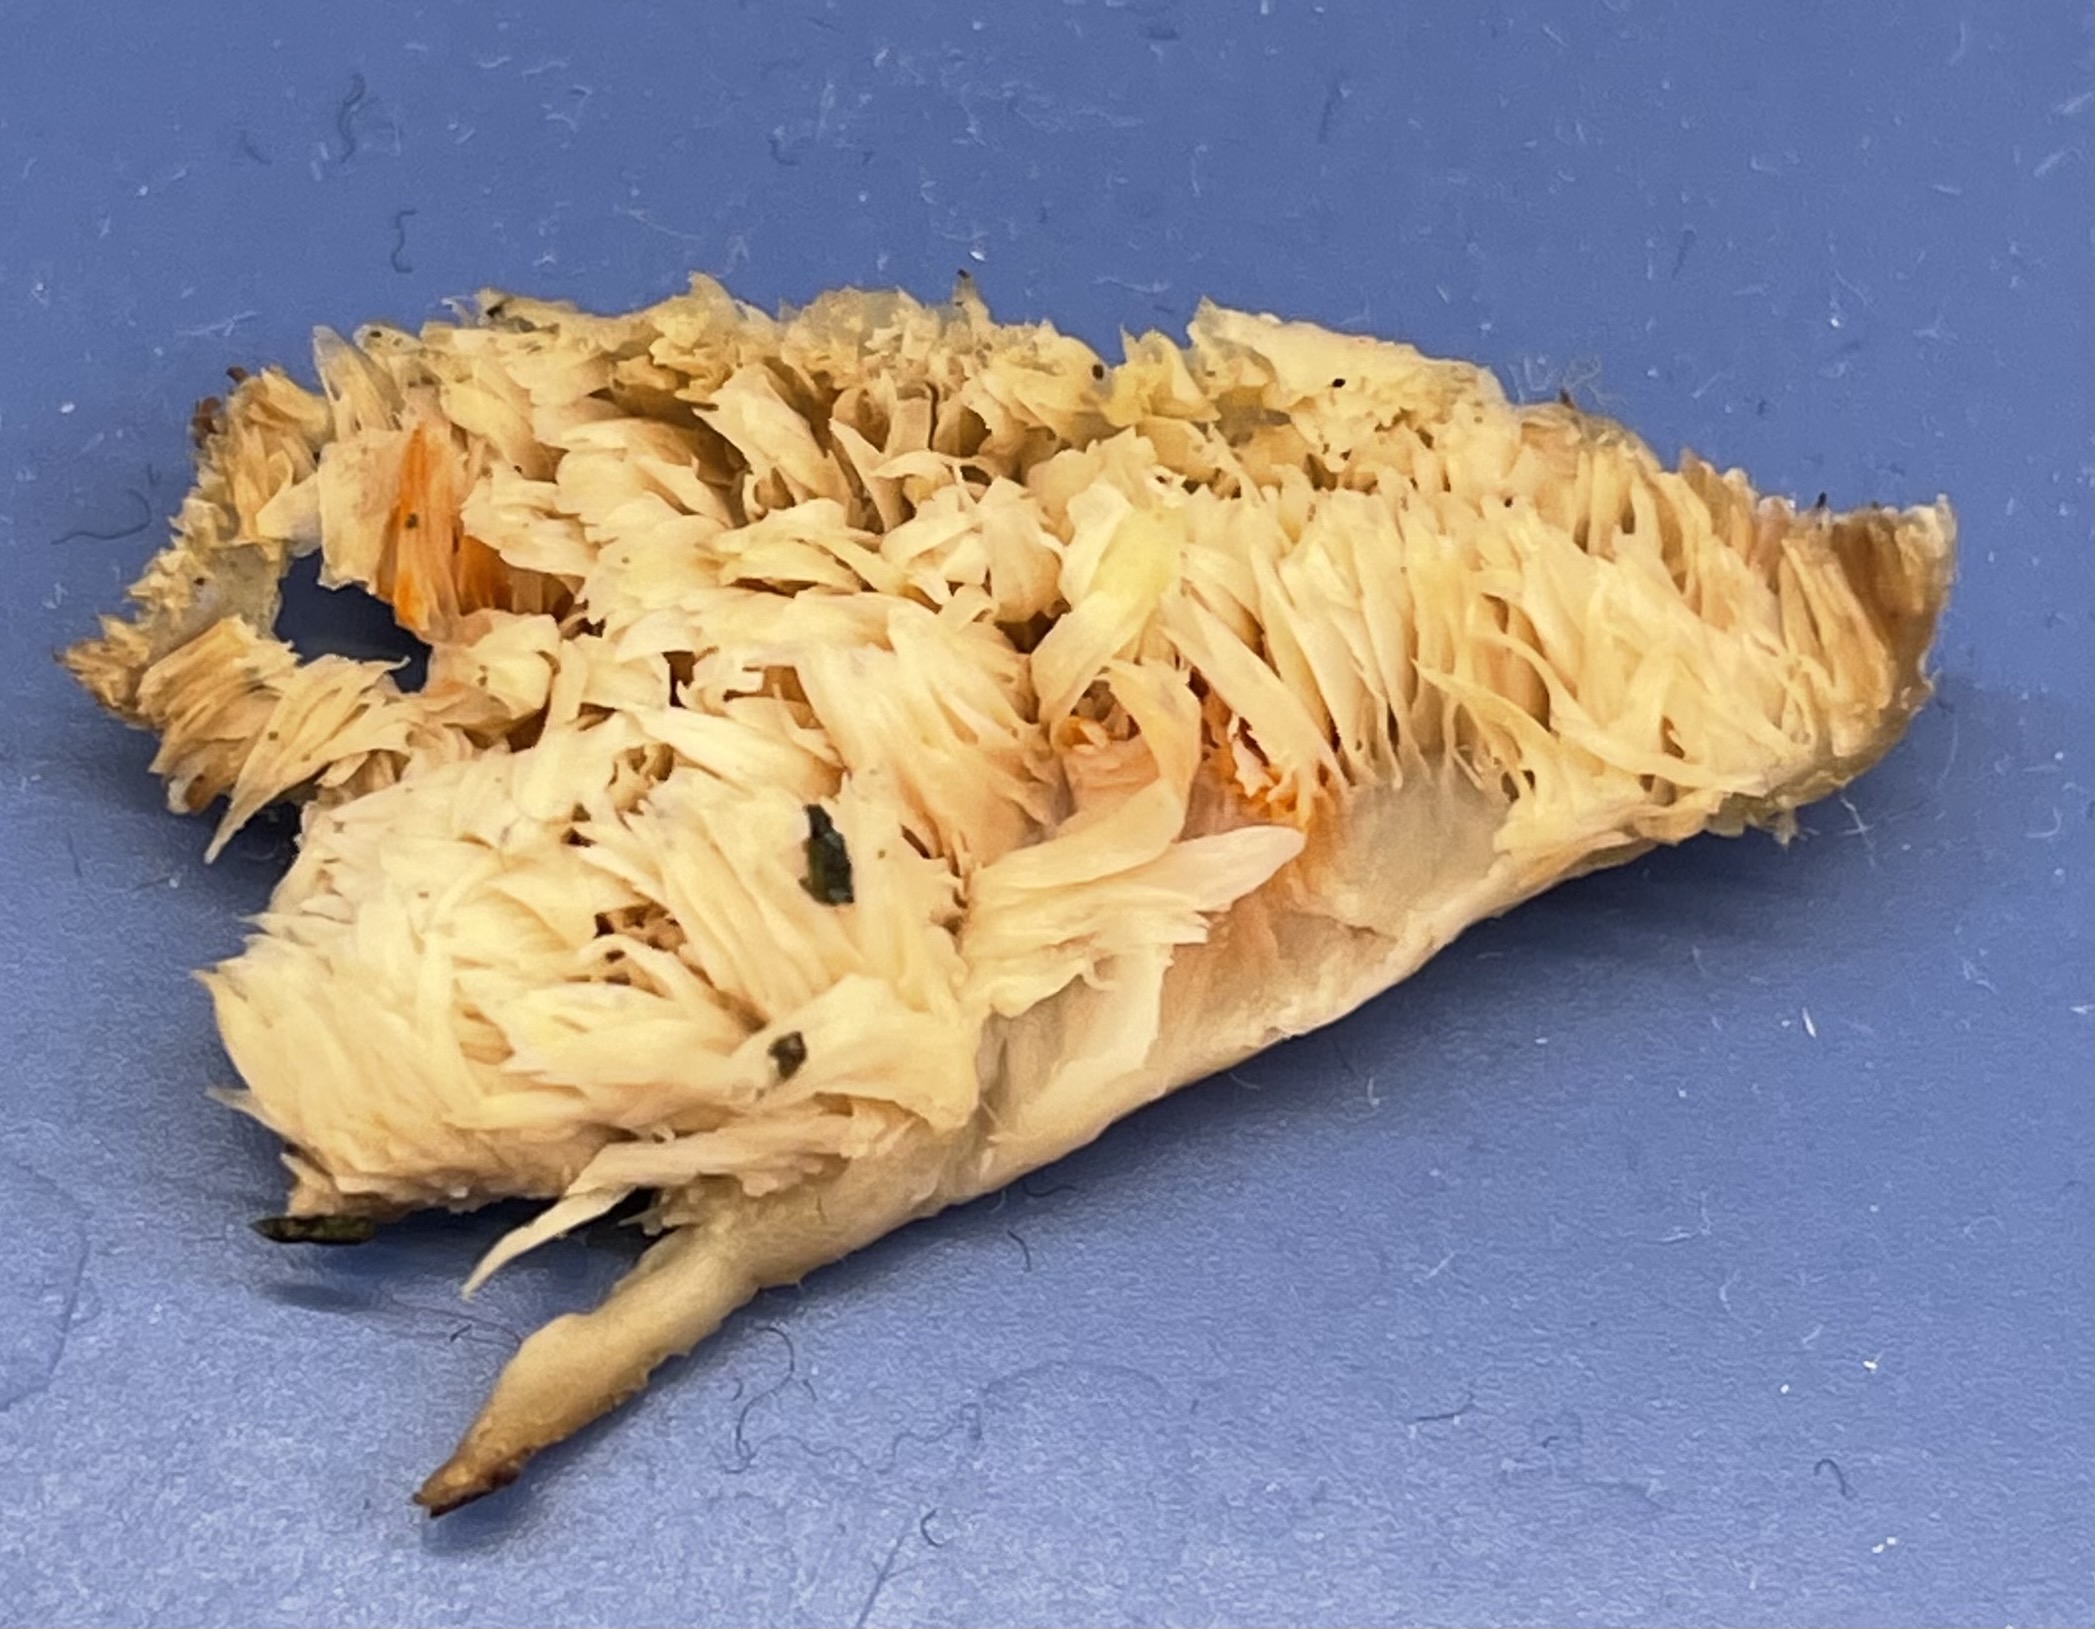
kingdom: Fungi
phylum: Basidiomycota
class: Agaricomycetes
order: Polyporales
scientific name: Polyporales
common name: poresvampordenen
